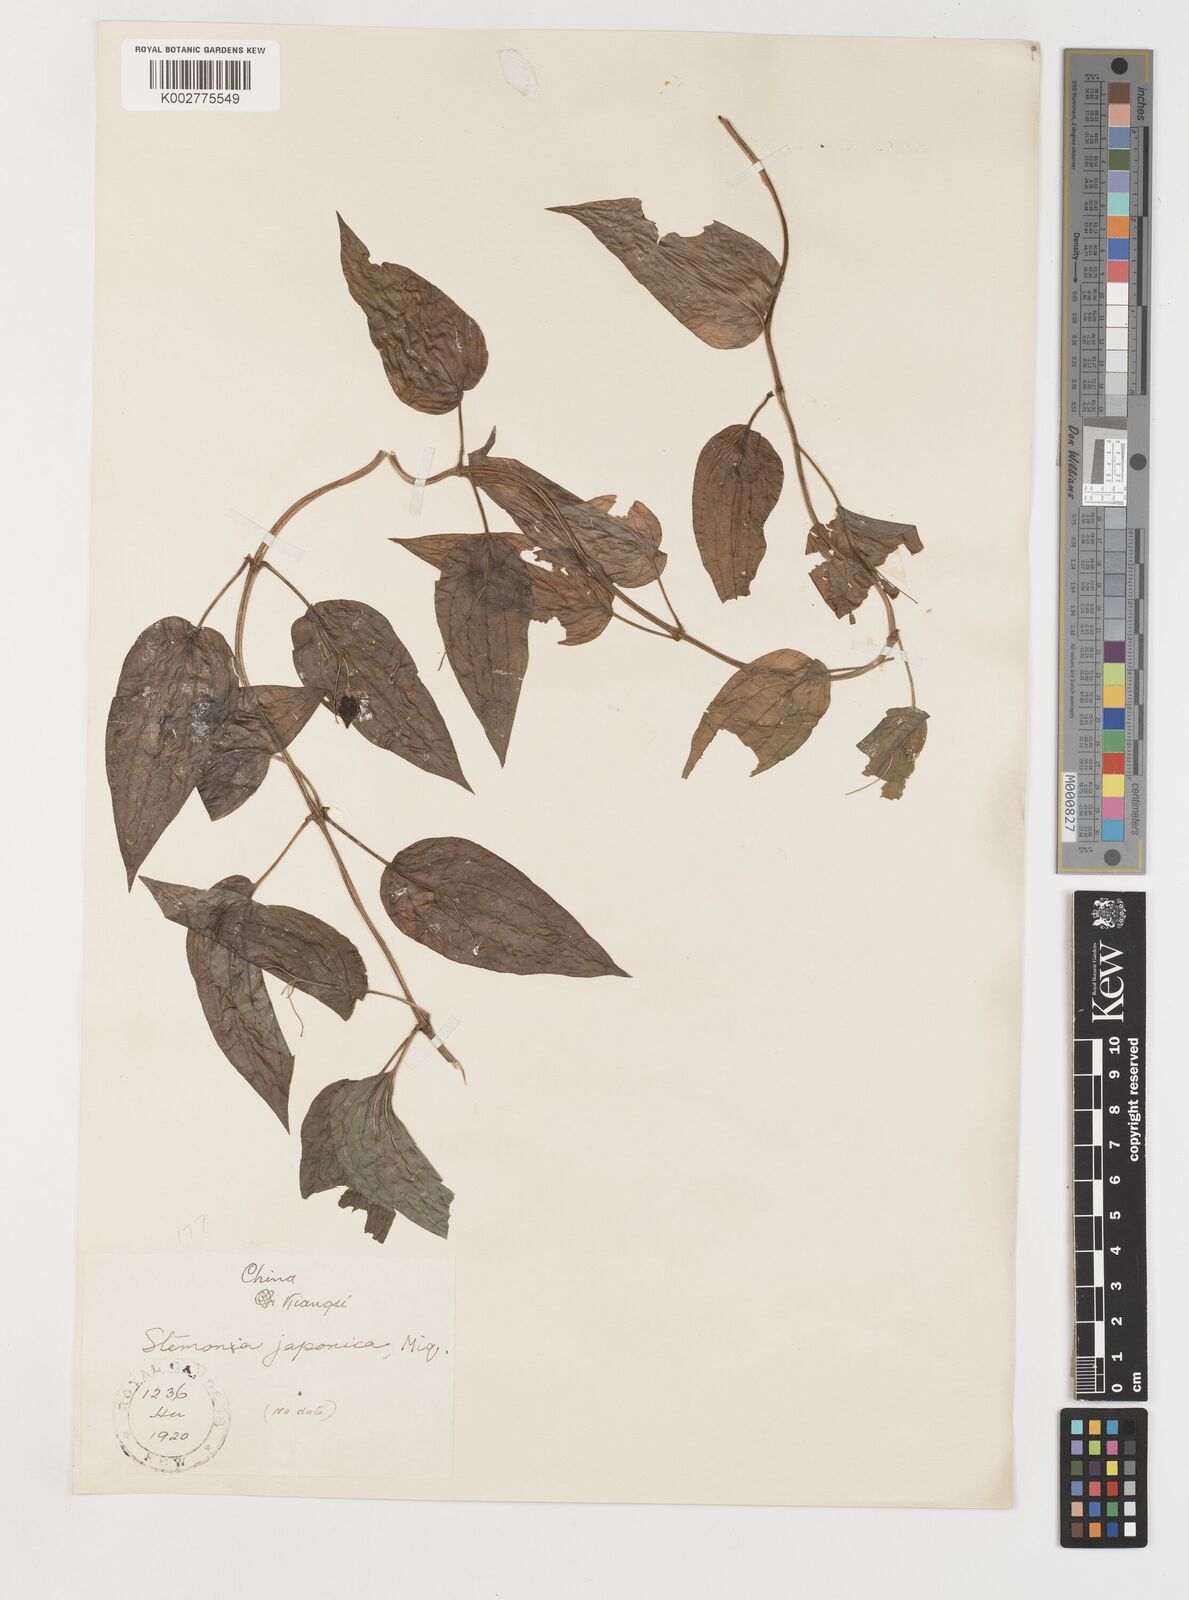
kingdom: Plantae
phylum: Tracheophyta
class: Liliopsida
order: Pandanales
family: Stemonaceae
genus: Stemona
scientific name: Stemona japonica
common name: Stemona
